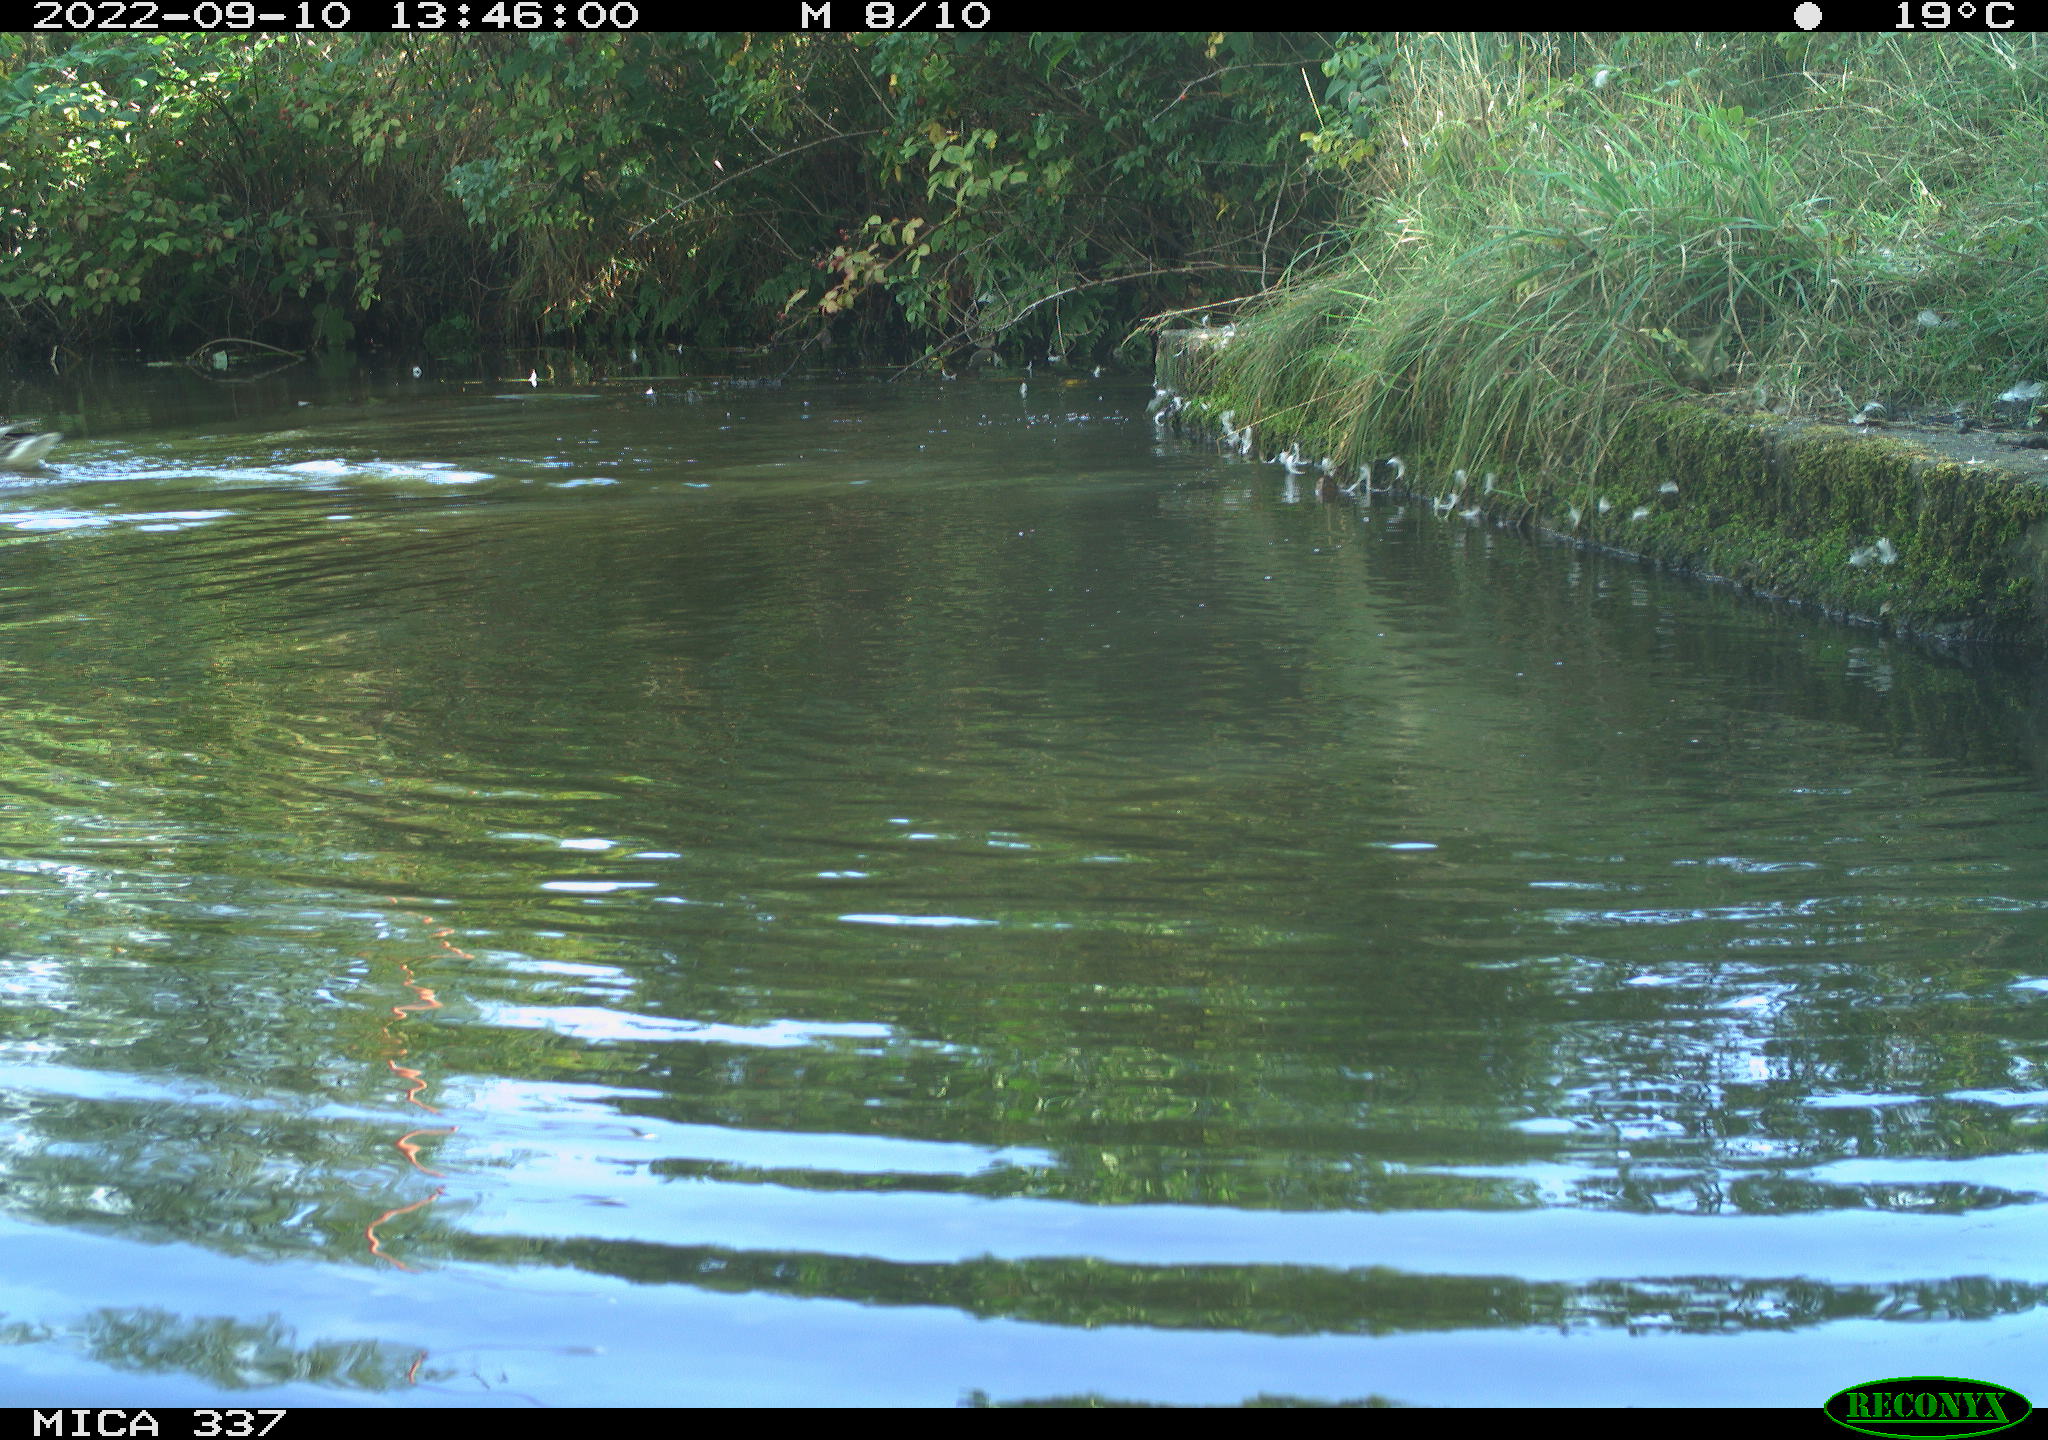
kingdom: Animalia
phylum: Chordata
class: Aves
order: Anseriformes
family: Anatidae
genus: Anas
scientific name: Anas platyrhynchos
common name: Mallard
